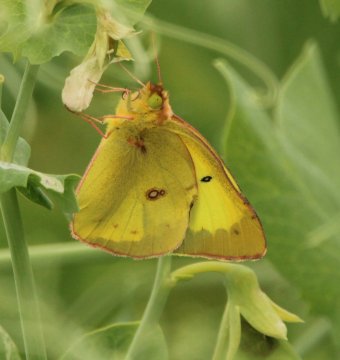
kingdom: Animalia
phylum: Arthropoda
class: Insecta
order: Lepidoptera
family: Pieridae
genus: Colias
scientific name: Colias philodice
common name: Clouded Sulphur
